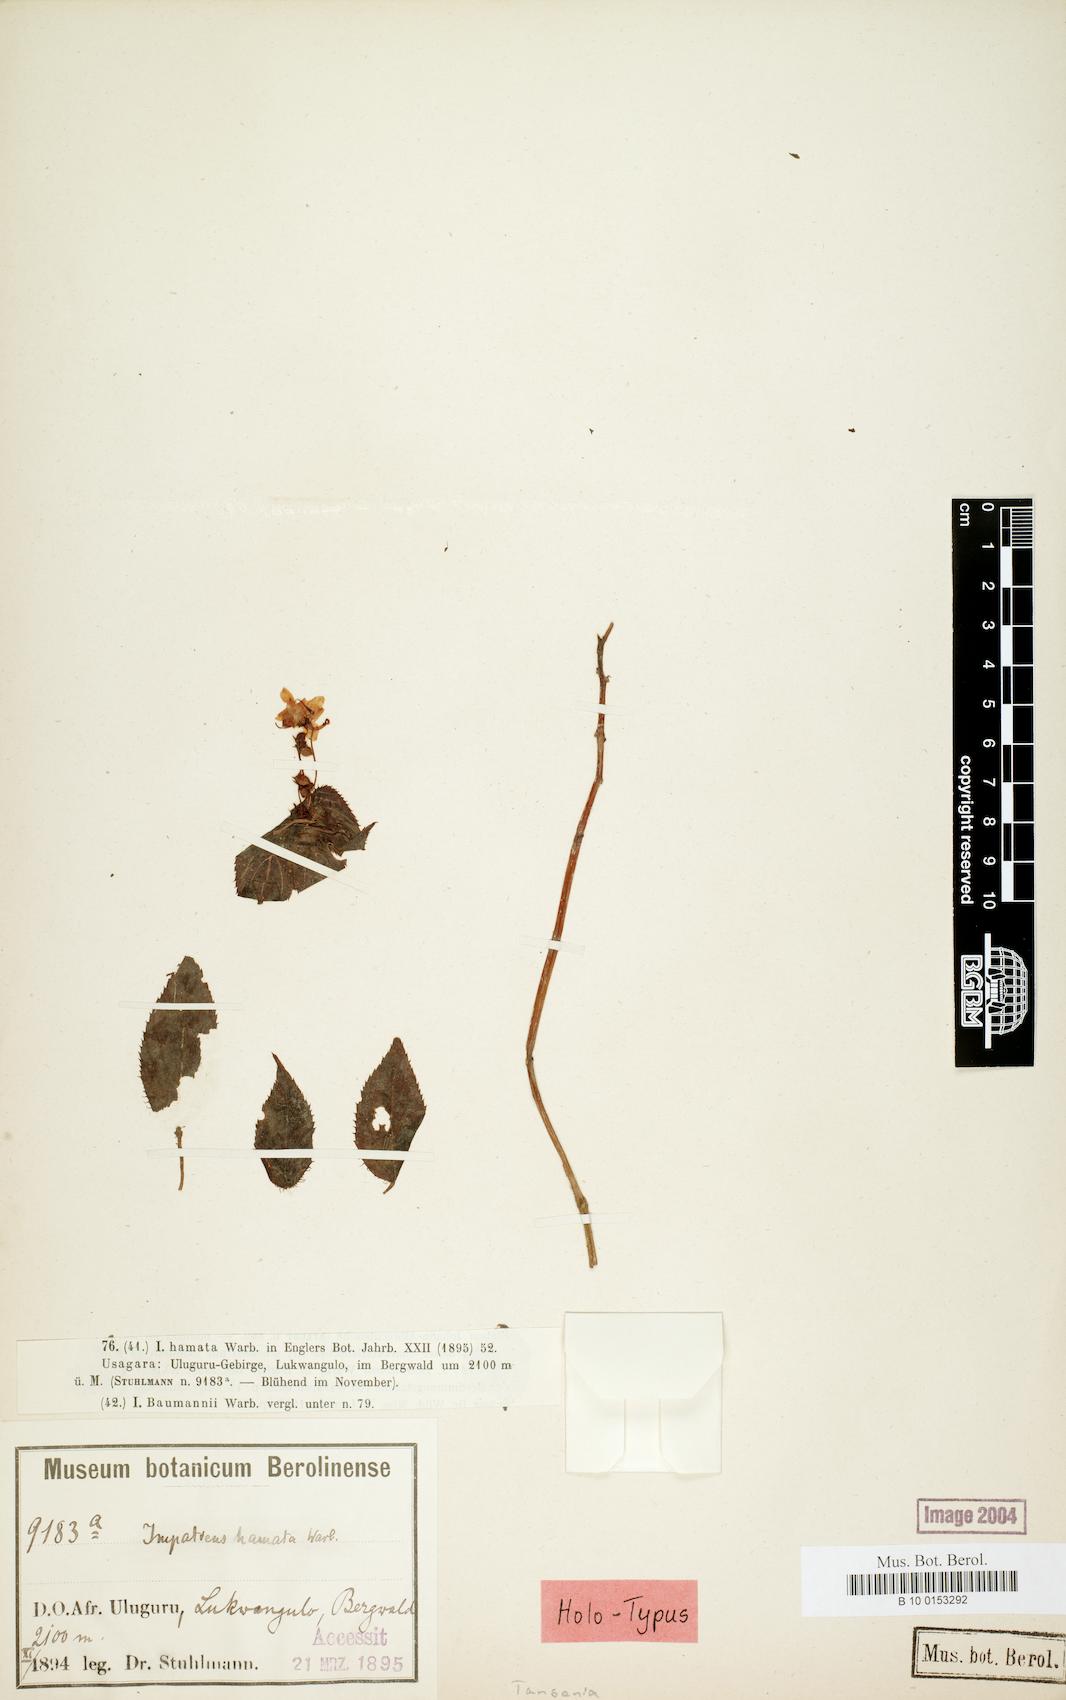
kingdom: Plantae
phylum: Tracheophyta
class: Magnoliopsida
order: Ericales
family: Balsaminaceae
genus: Impatiens
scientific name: Impatiens hamata
